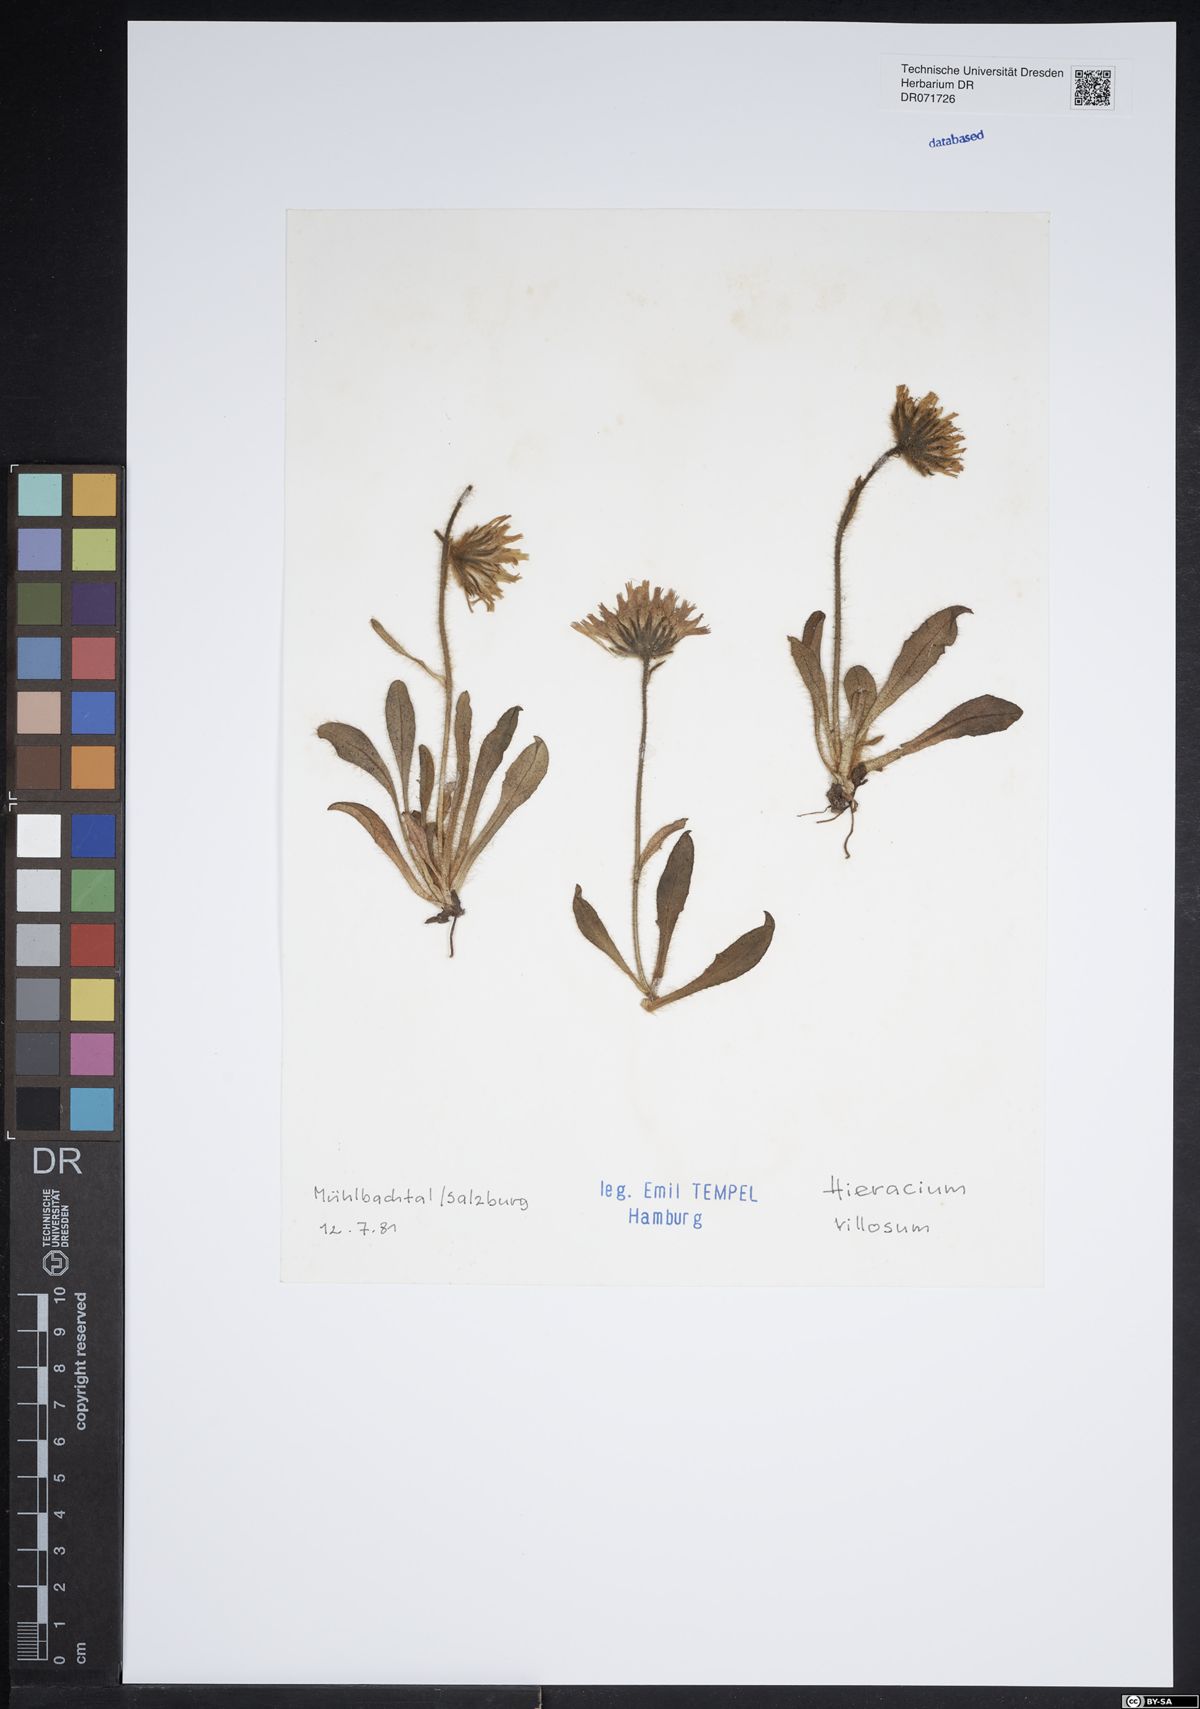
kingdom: Plantae
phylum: Tracheophyta
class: Magnoliopsida
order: Asterales
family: Asteraceae
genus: Hieracium
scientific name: Hieracium villosum
